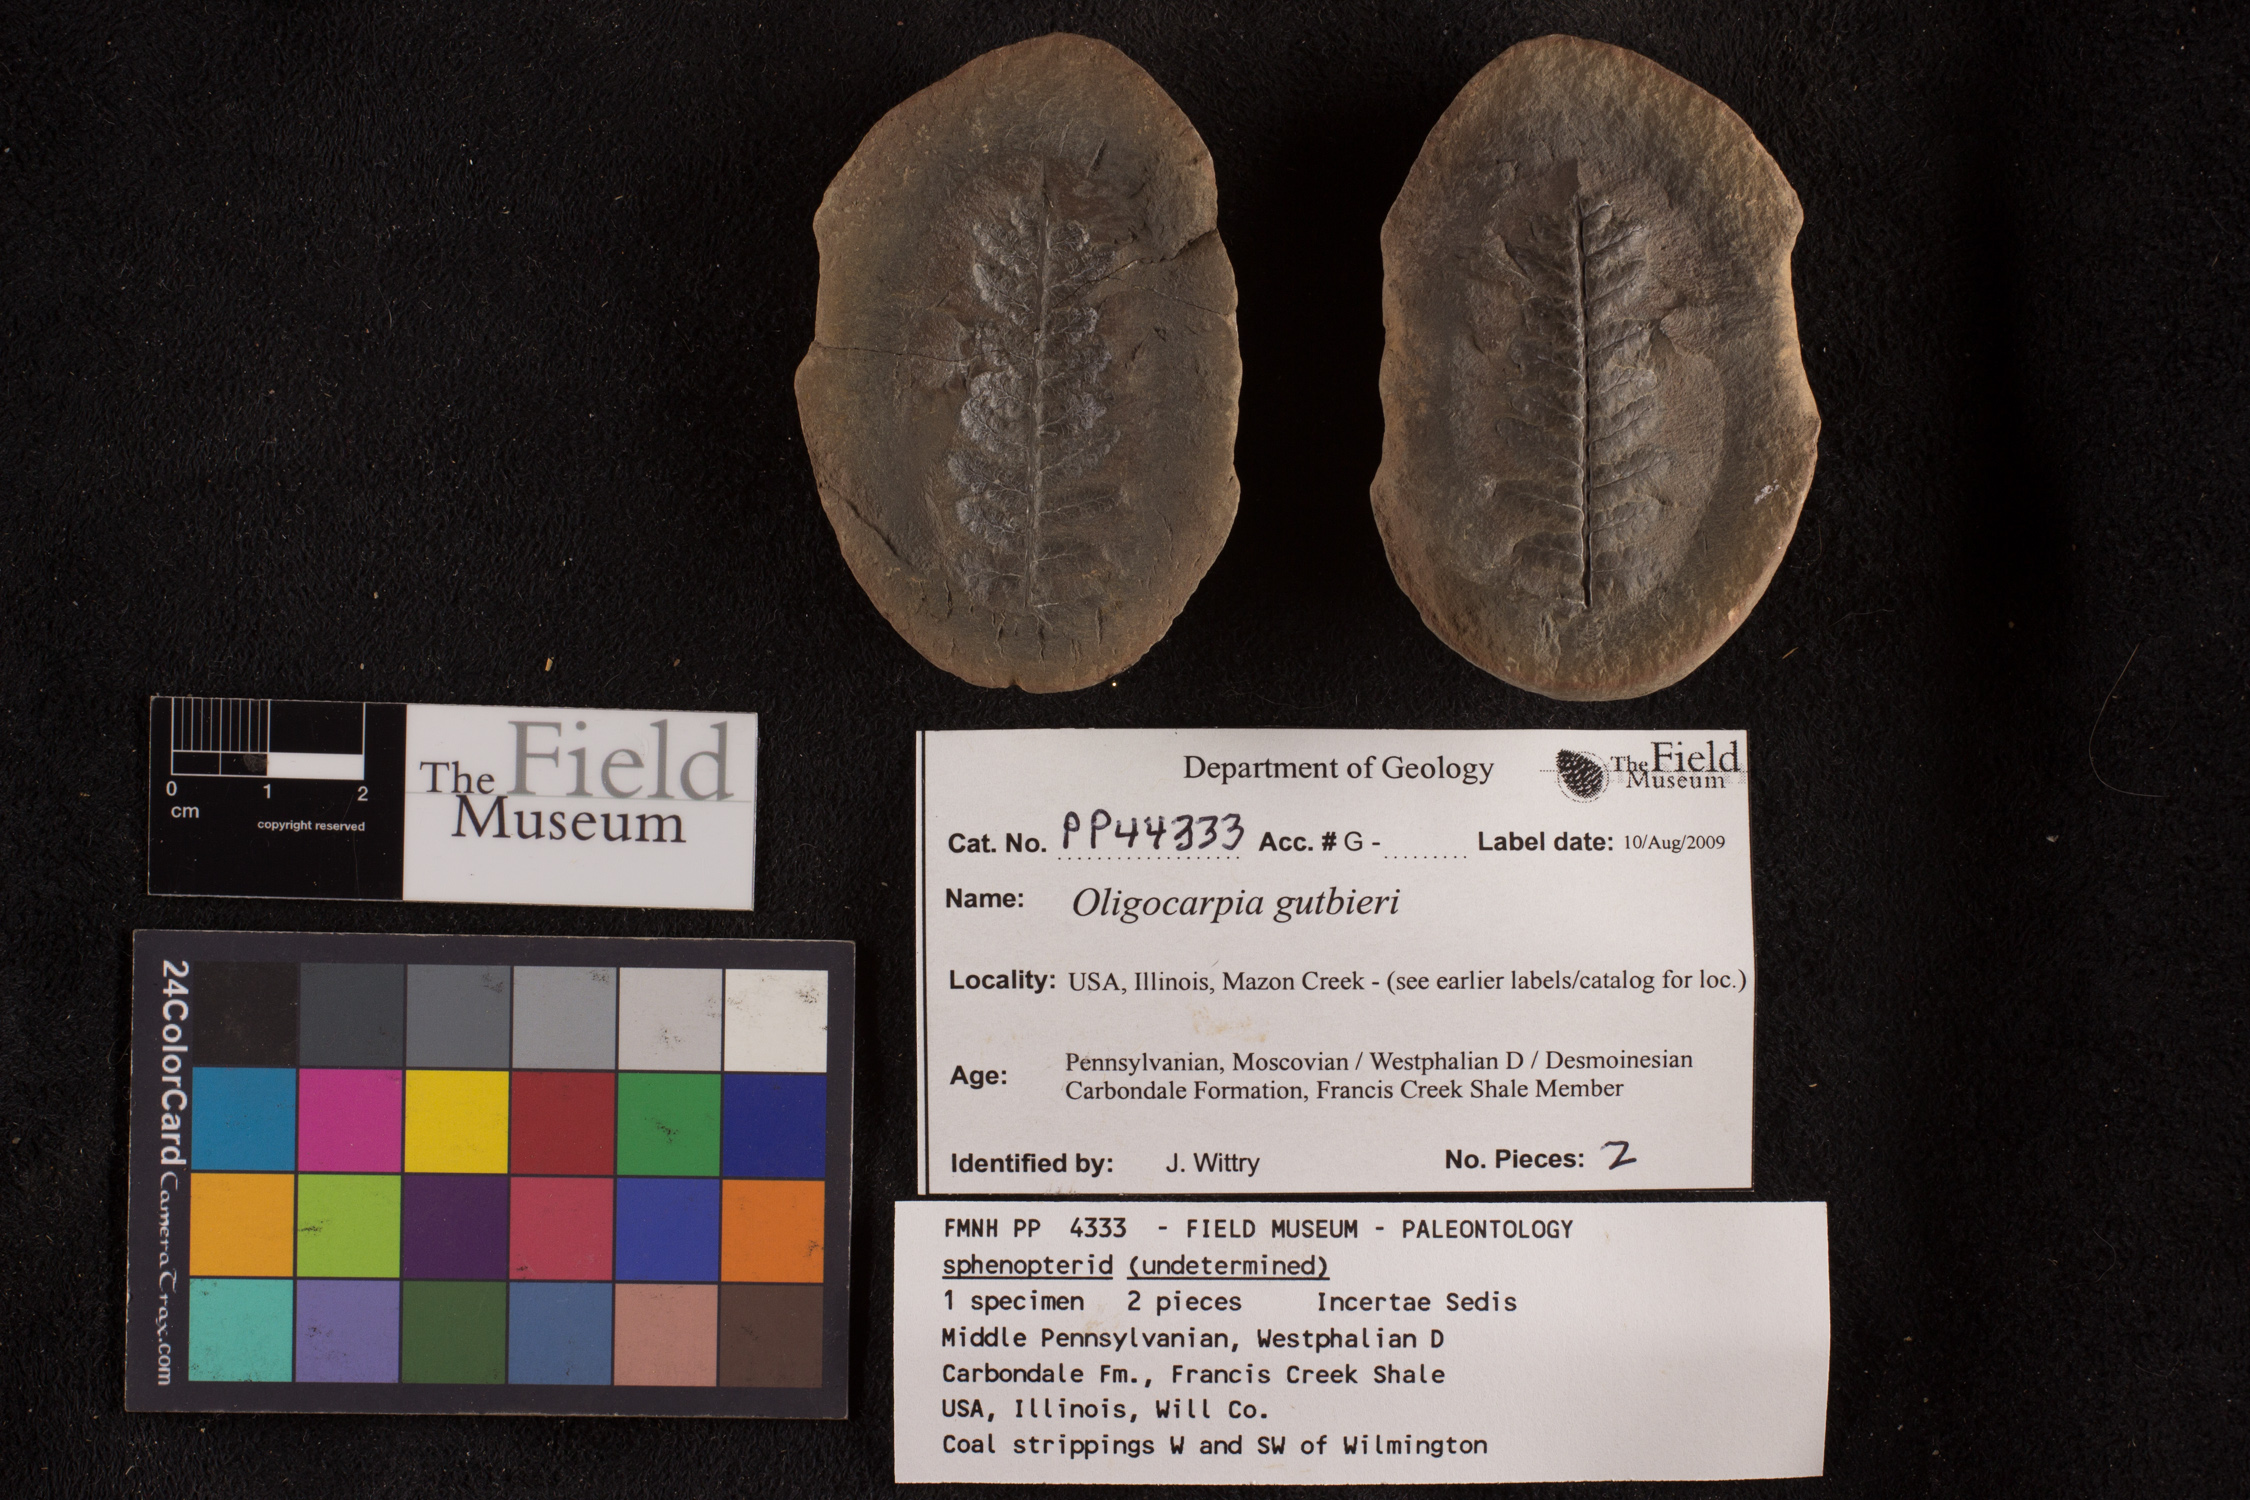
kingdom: Plantae
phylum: Tracheophyta
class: Polypodiopsida
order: Gleicheniales
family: Gleicheniaceae
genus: Oligocarpia
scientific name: Oligocarpia
